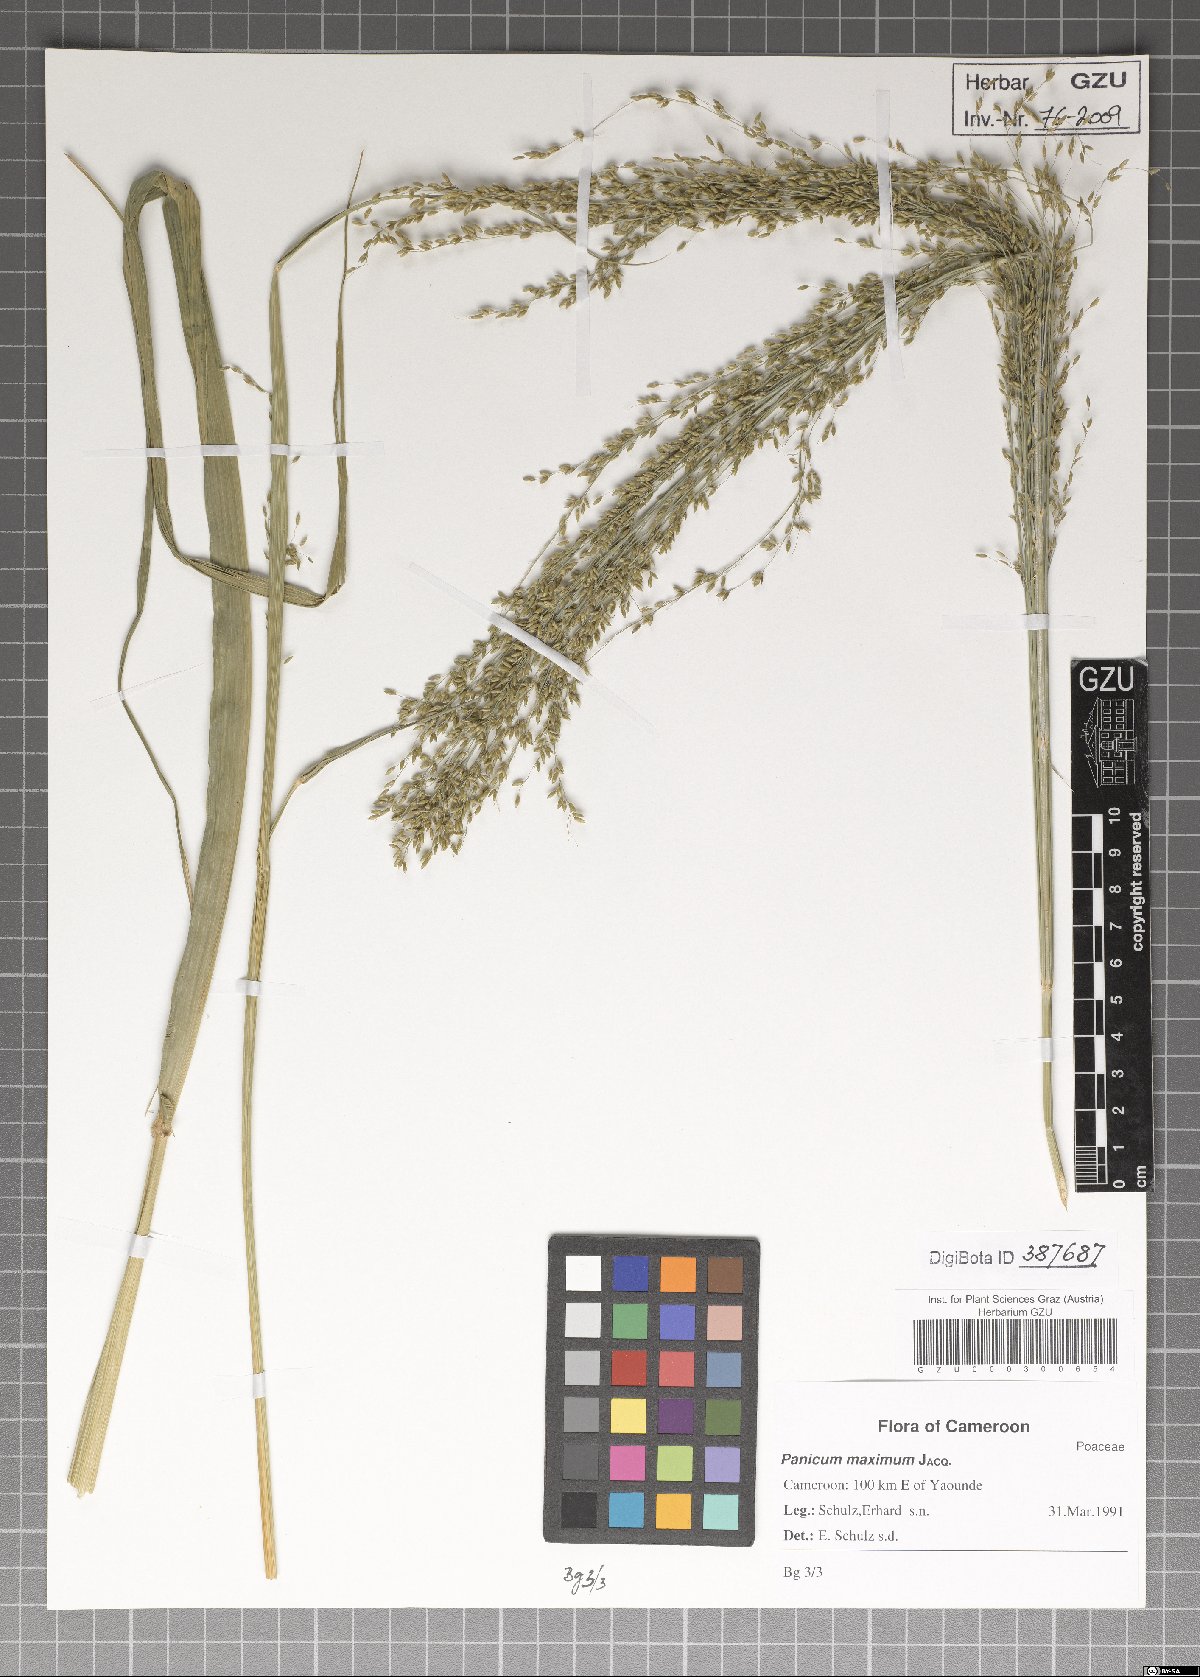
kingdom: Plantae
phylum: Tracheophyta
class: Liliopsida
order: Poales
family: Poaceae
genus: Megathyrsus
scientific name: Megathyrsus maximus
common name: Guineagrass
